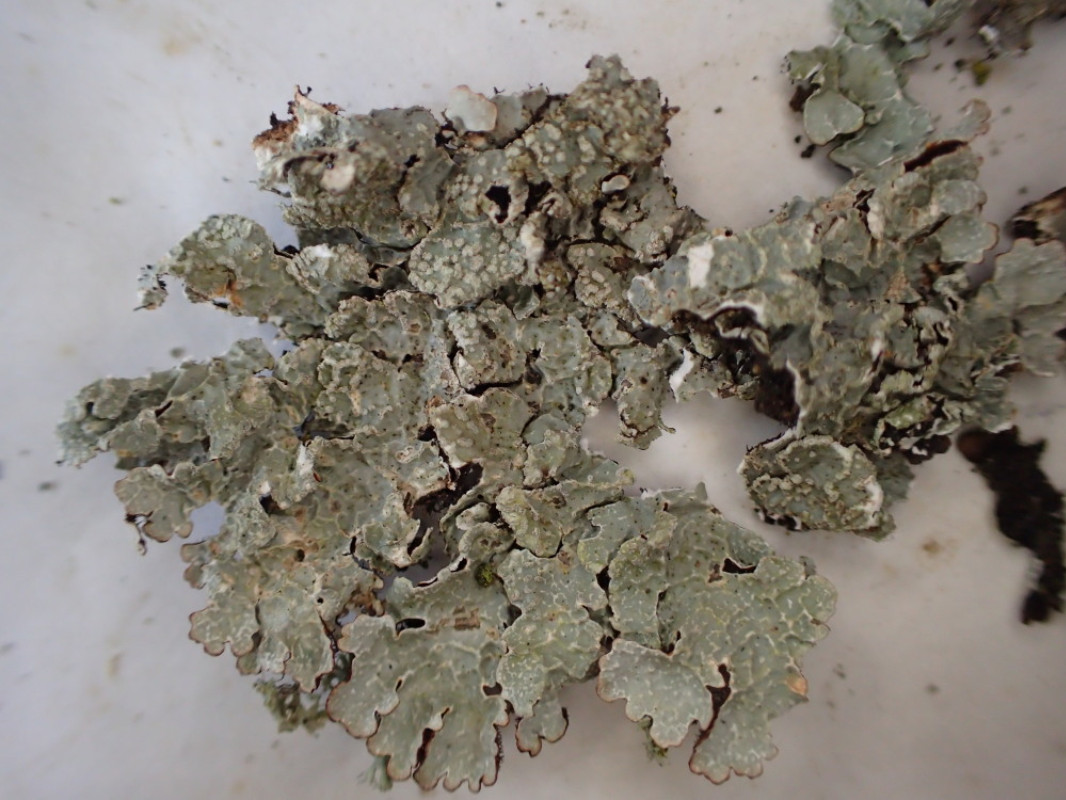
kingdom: Fungi
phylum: Ascomycota
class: Lecanoromycetes
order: Lecanorales
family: Parmeliaceae
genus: Parmelia
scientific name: Parmelia sulcata
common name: rynket skållav
